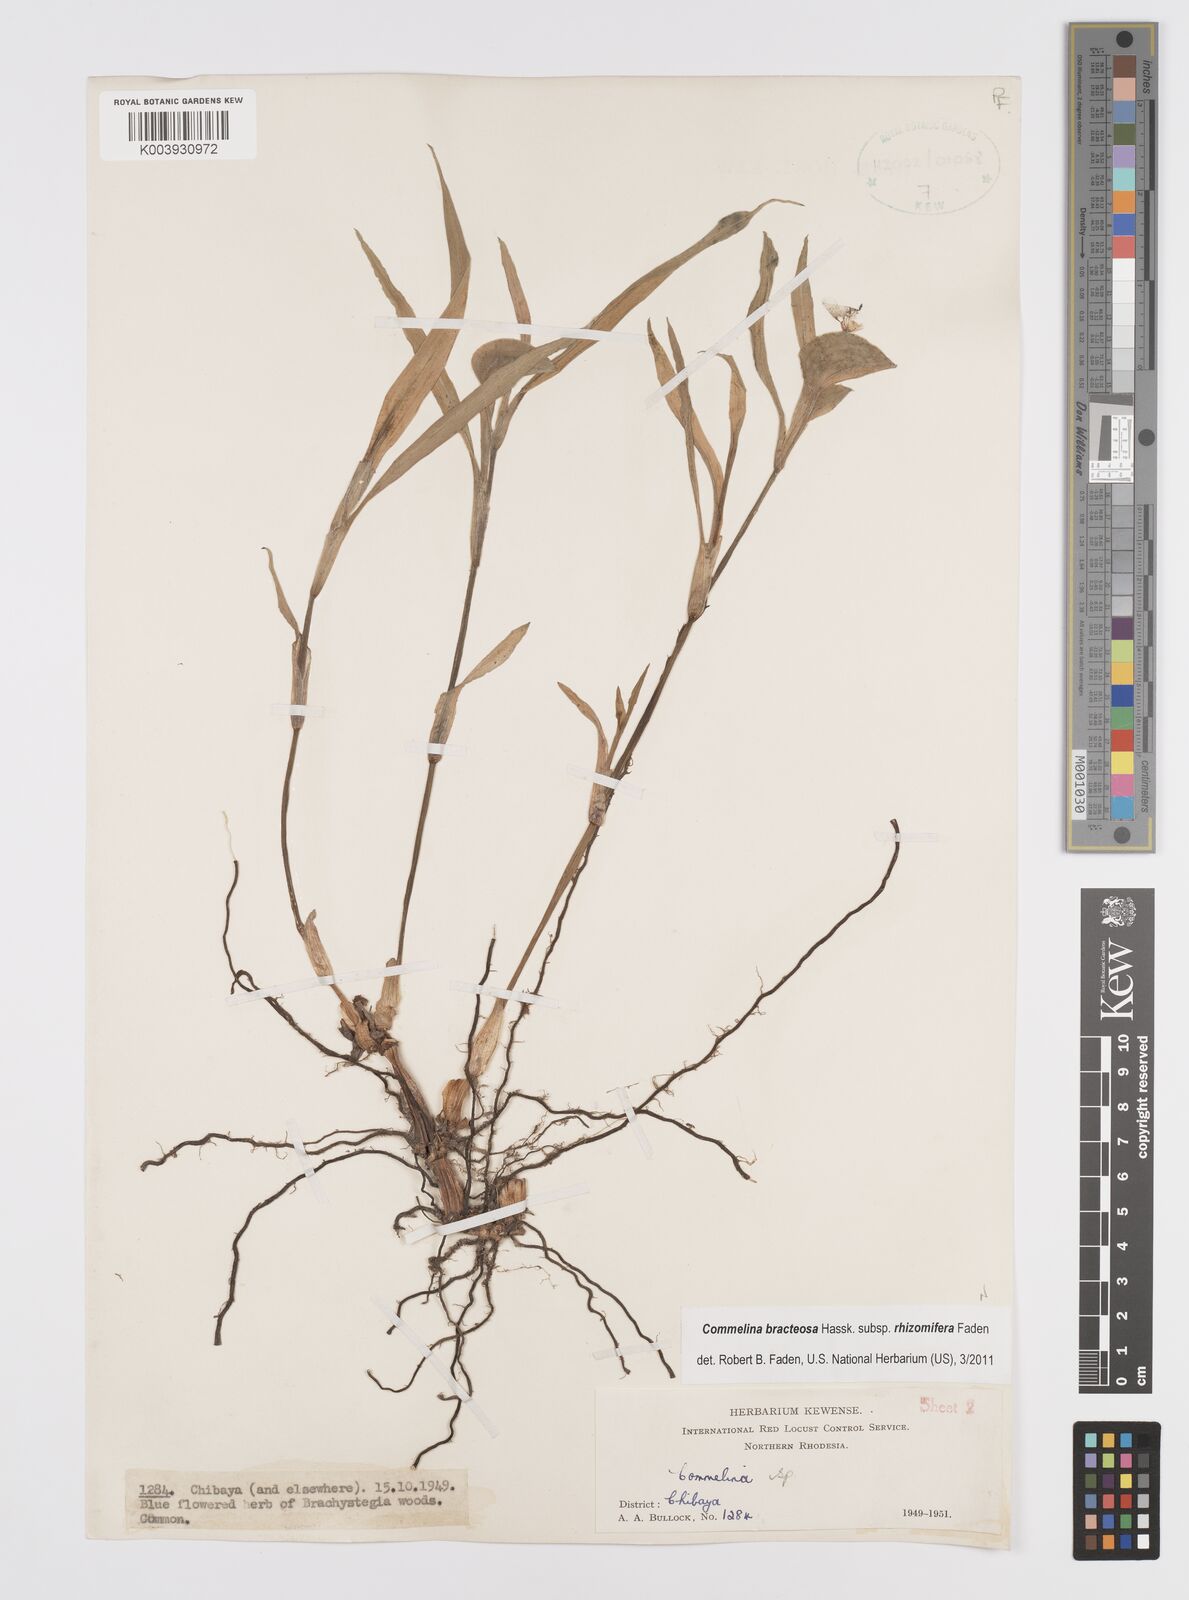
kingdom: Plantae
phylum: Tracheophyta
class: Liliopsida
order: Commelinales
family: Commelinaceae
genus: Commelina
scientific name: Commelina bracteosa
